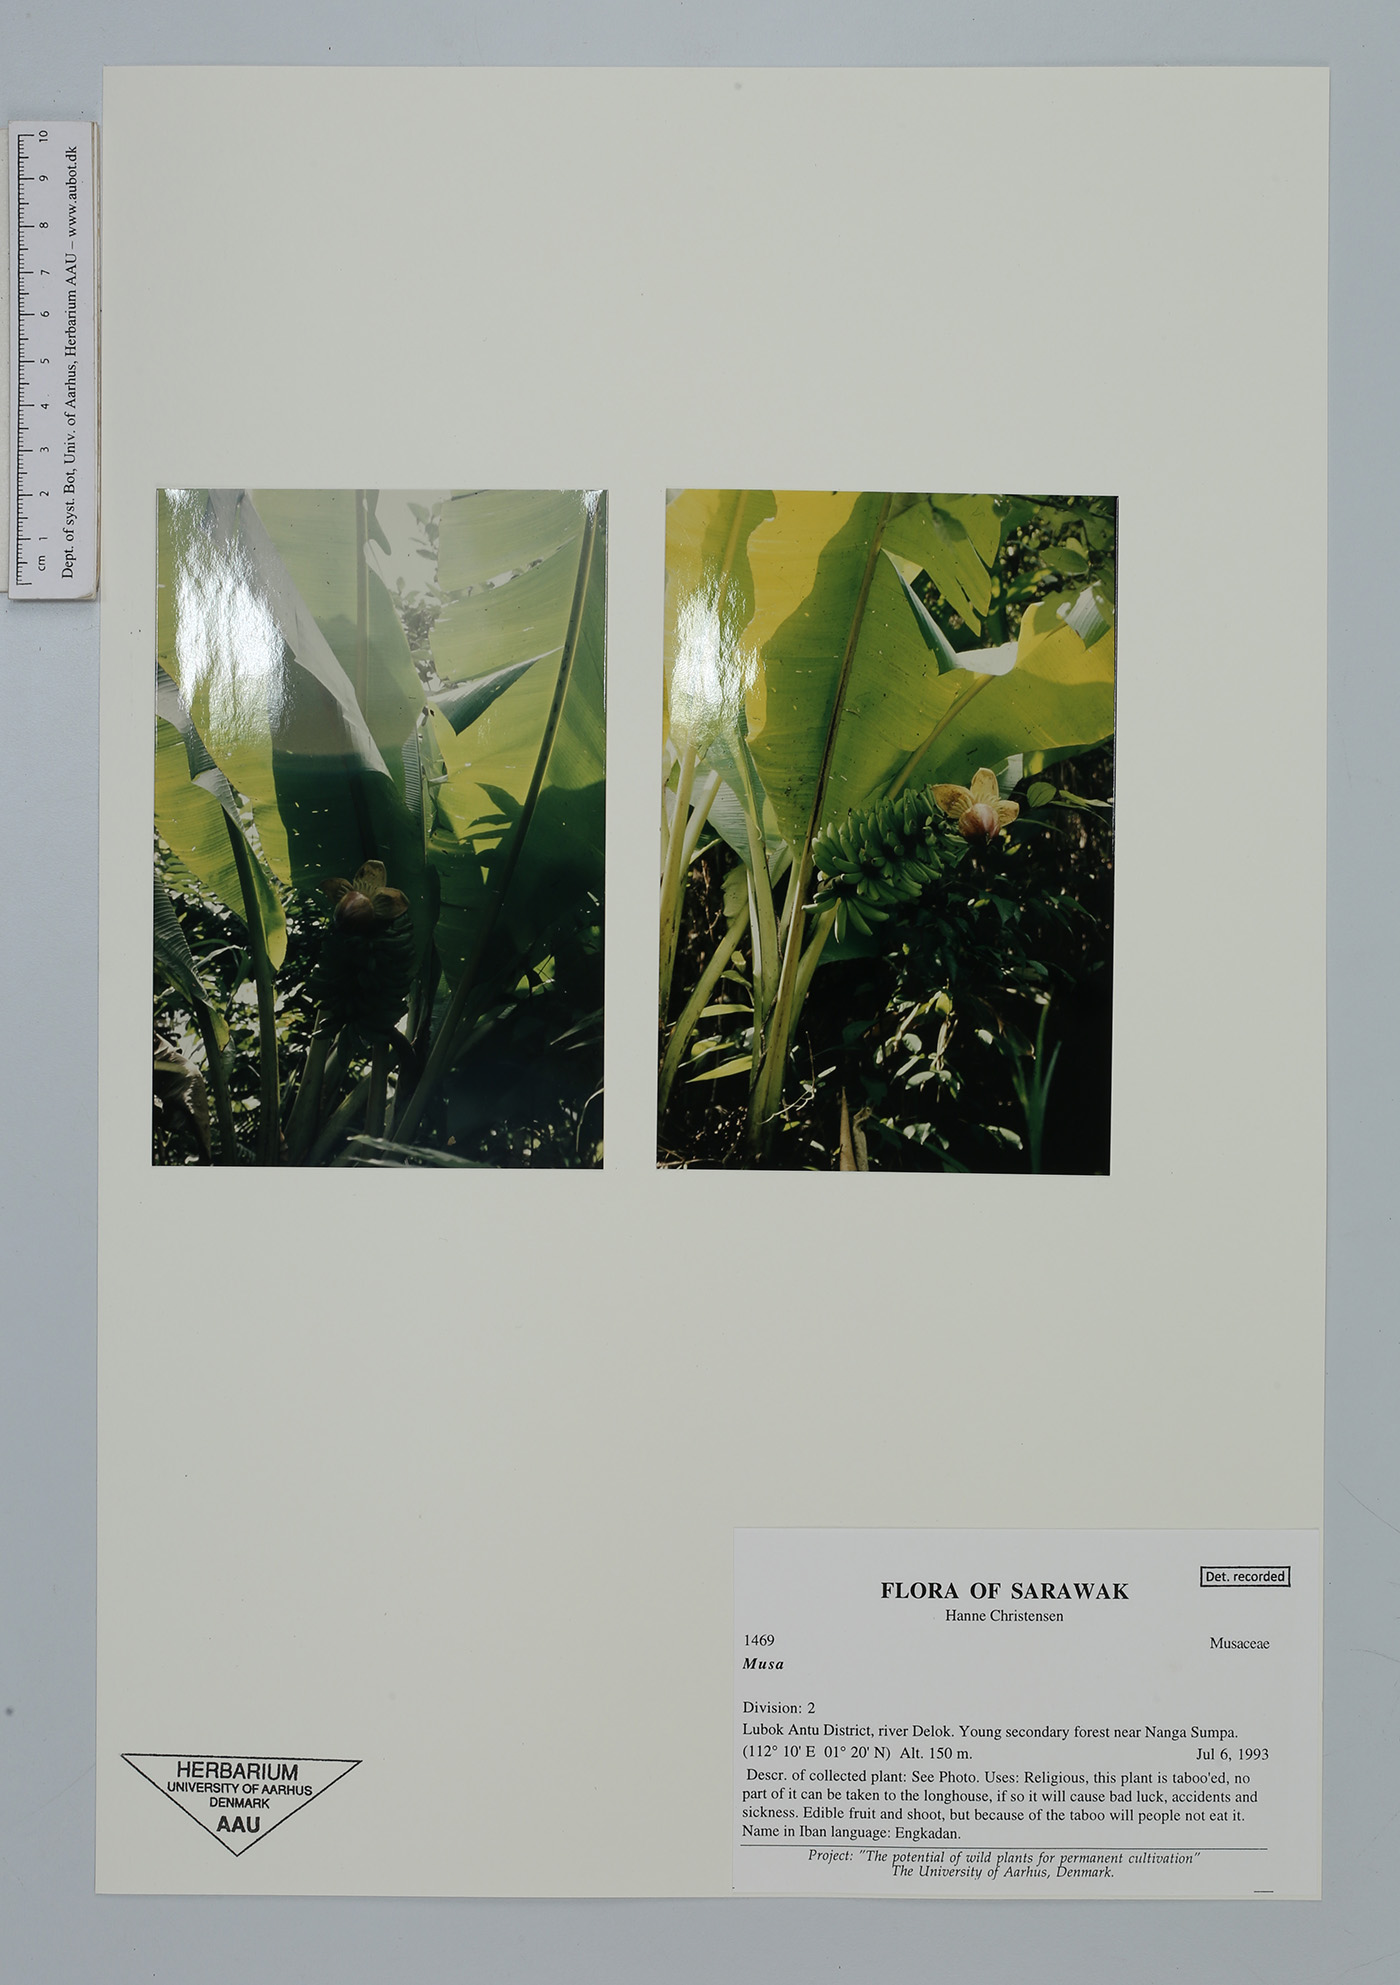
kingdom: Plantae
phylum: Tracheophyta
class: Liliopsida
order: Zingiberales
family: Musaceae
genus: Musa
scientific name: Musa
